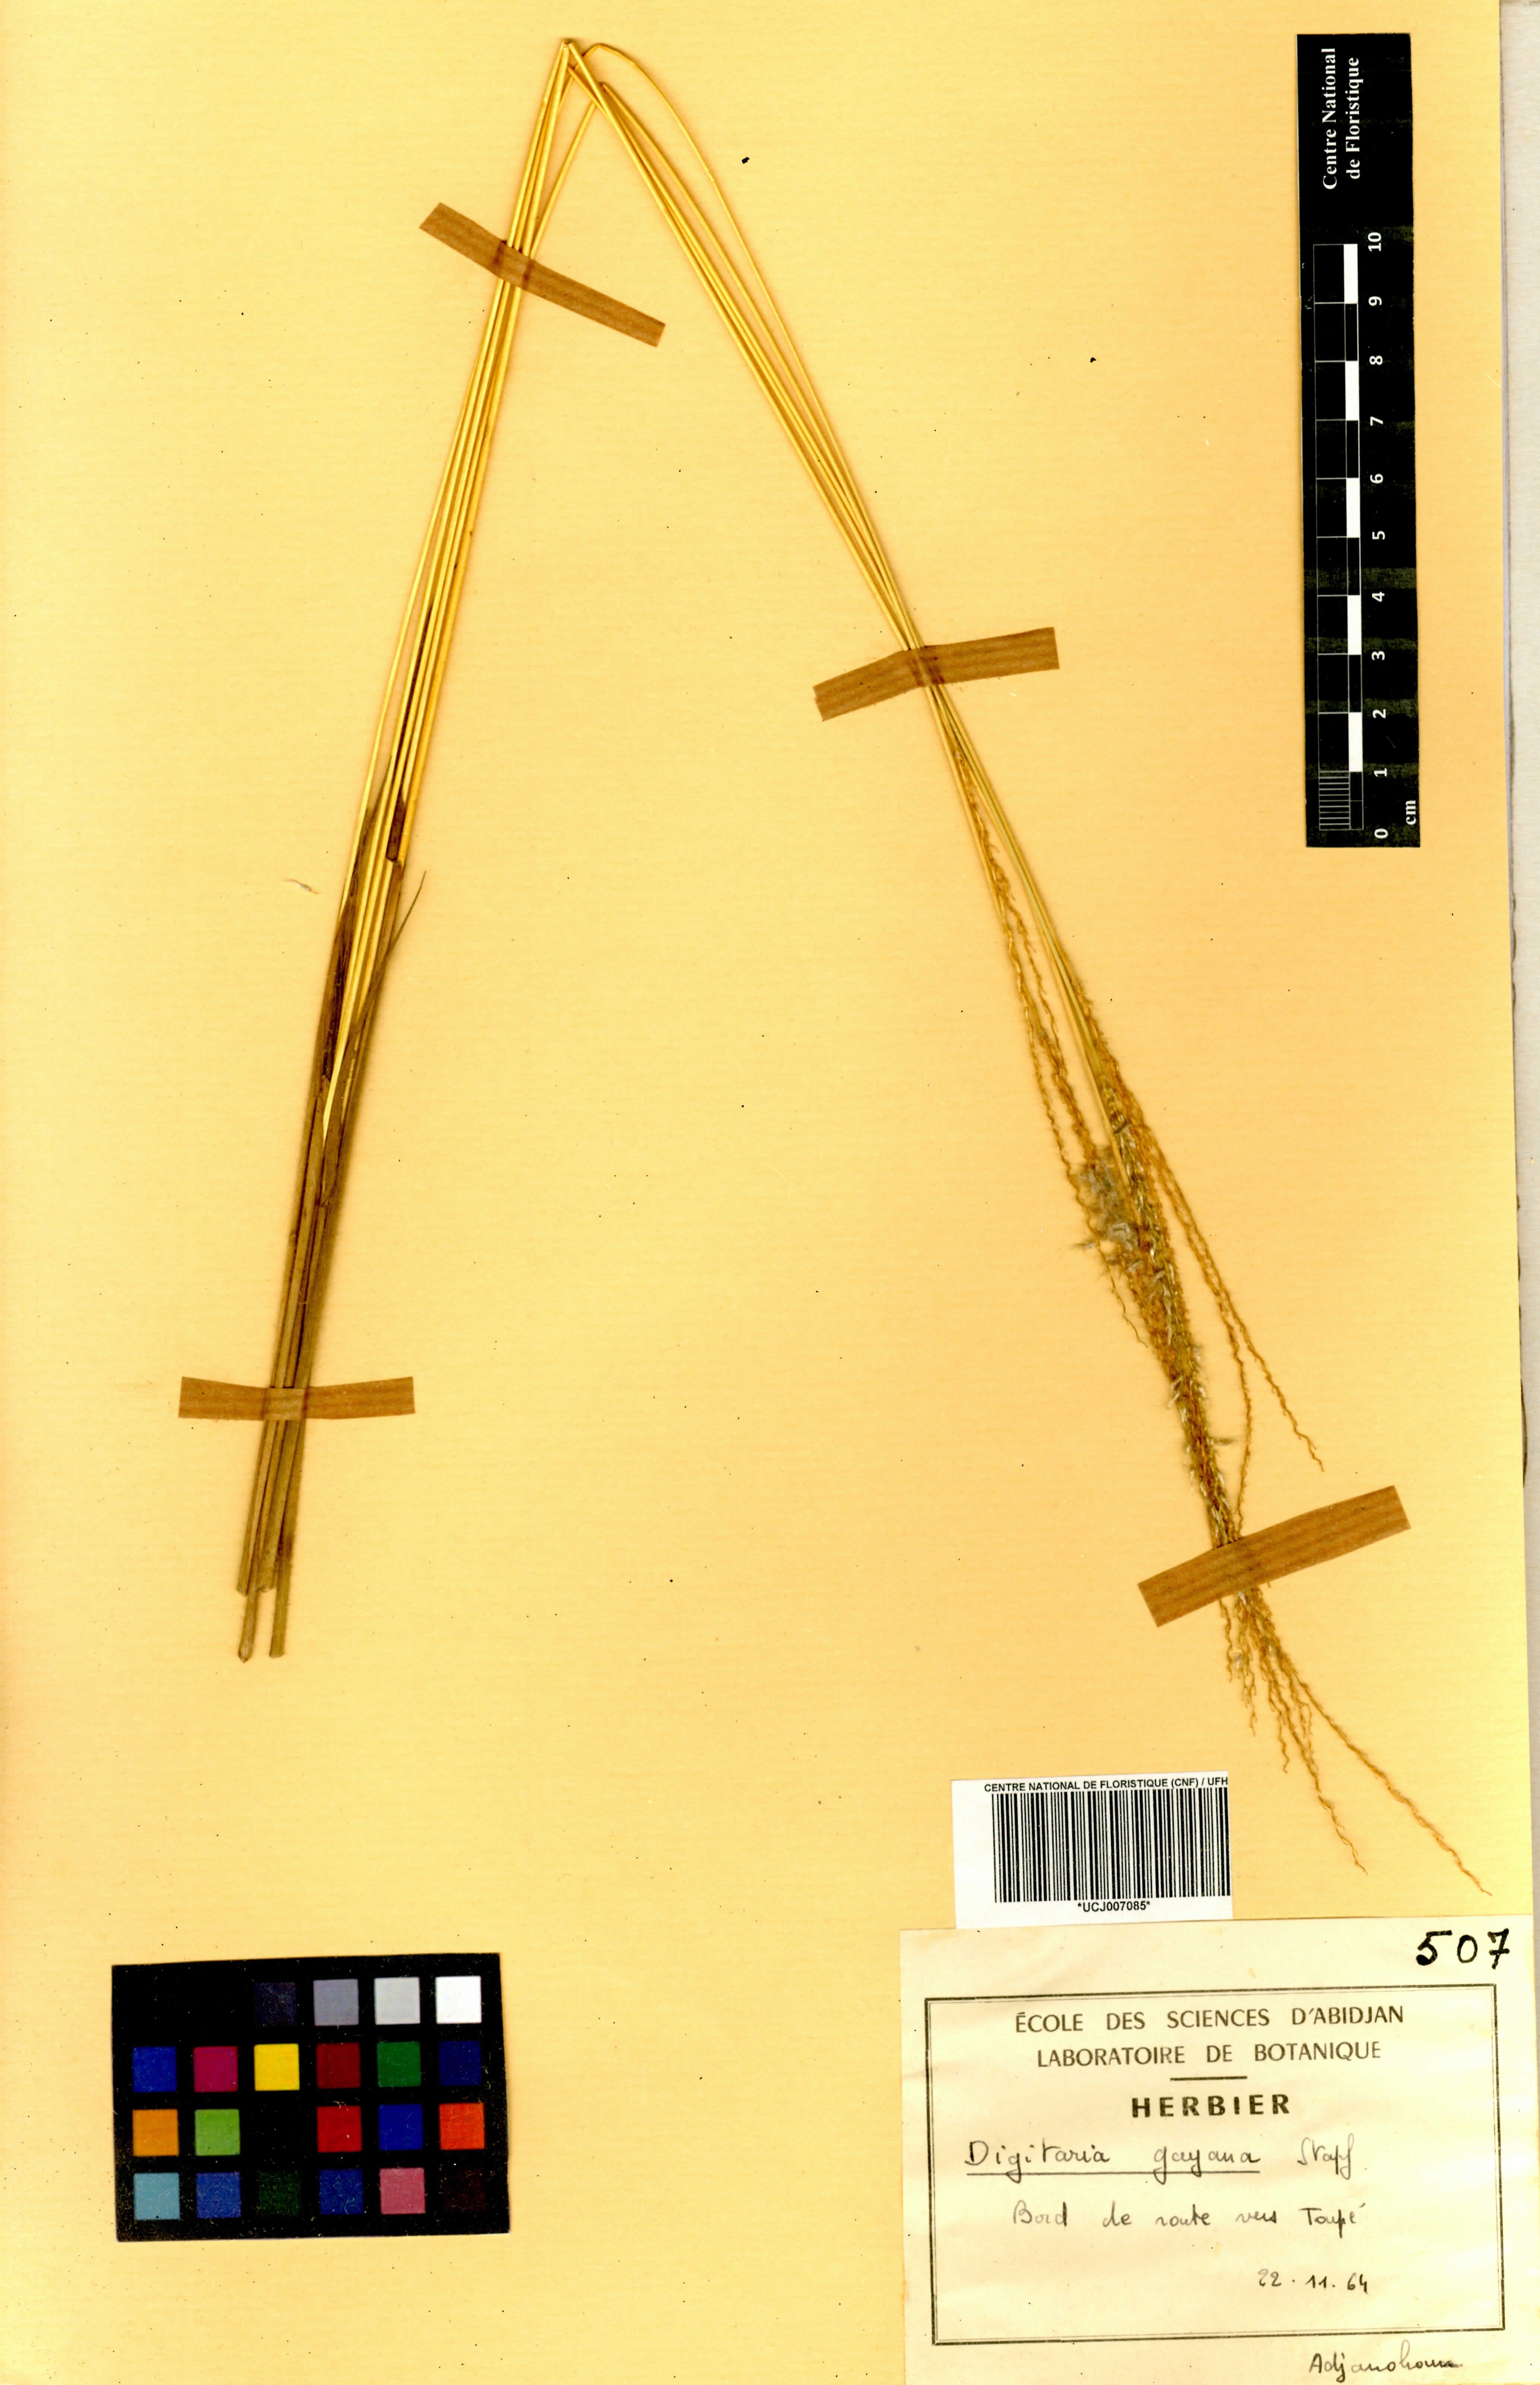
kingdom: Plantae
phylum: Tracheophyta
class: Liliopsida
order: Poales
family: Poaceae
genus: Digitaria
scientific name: Digitaria gayana
